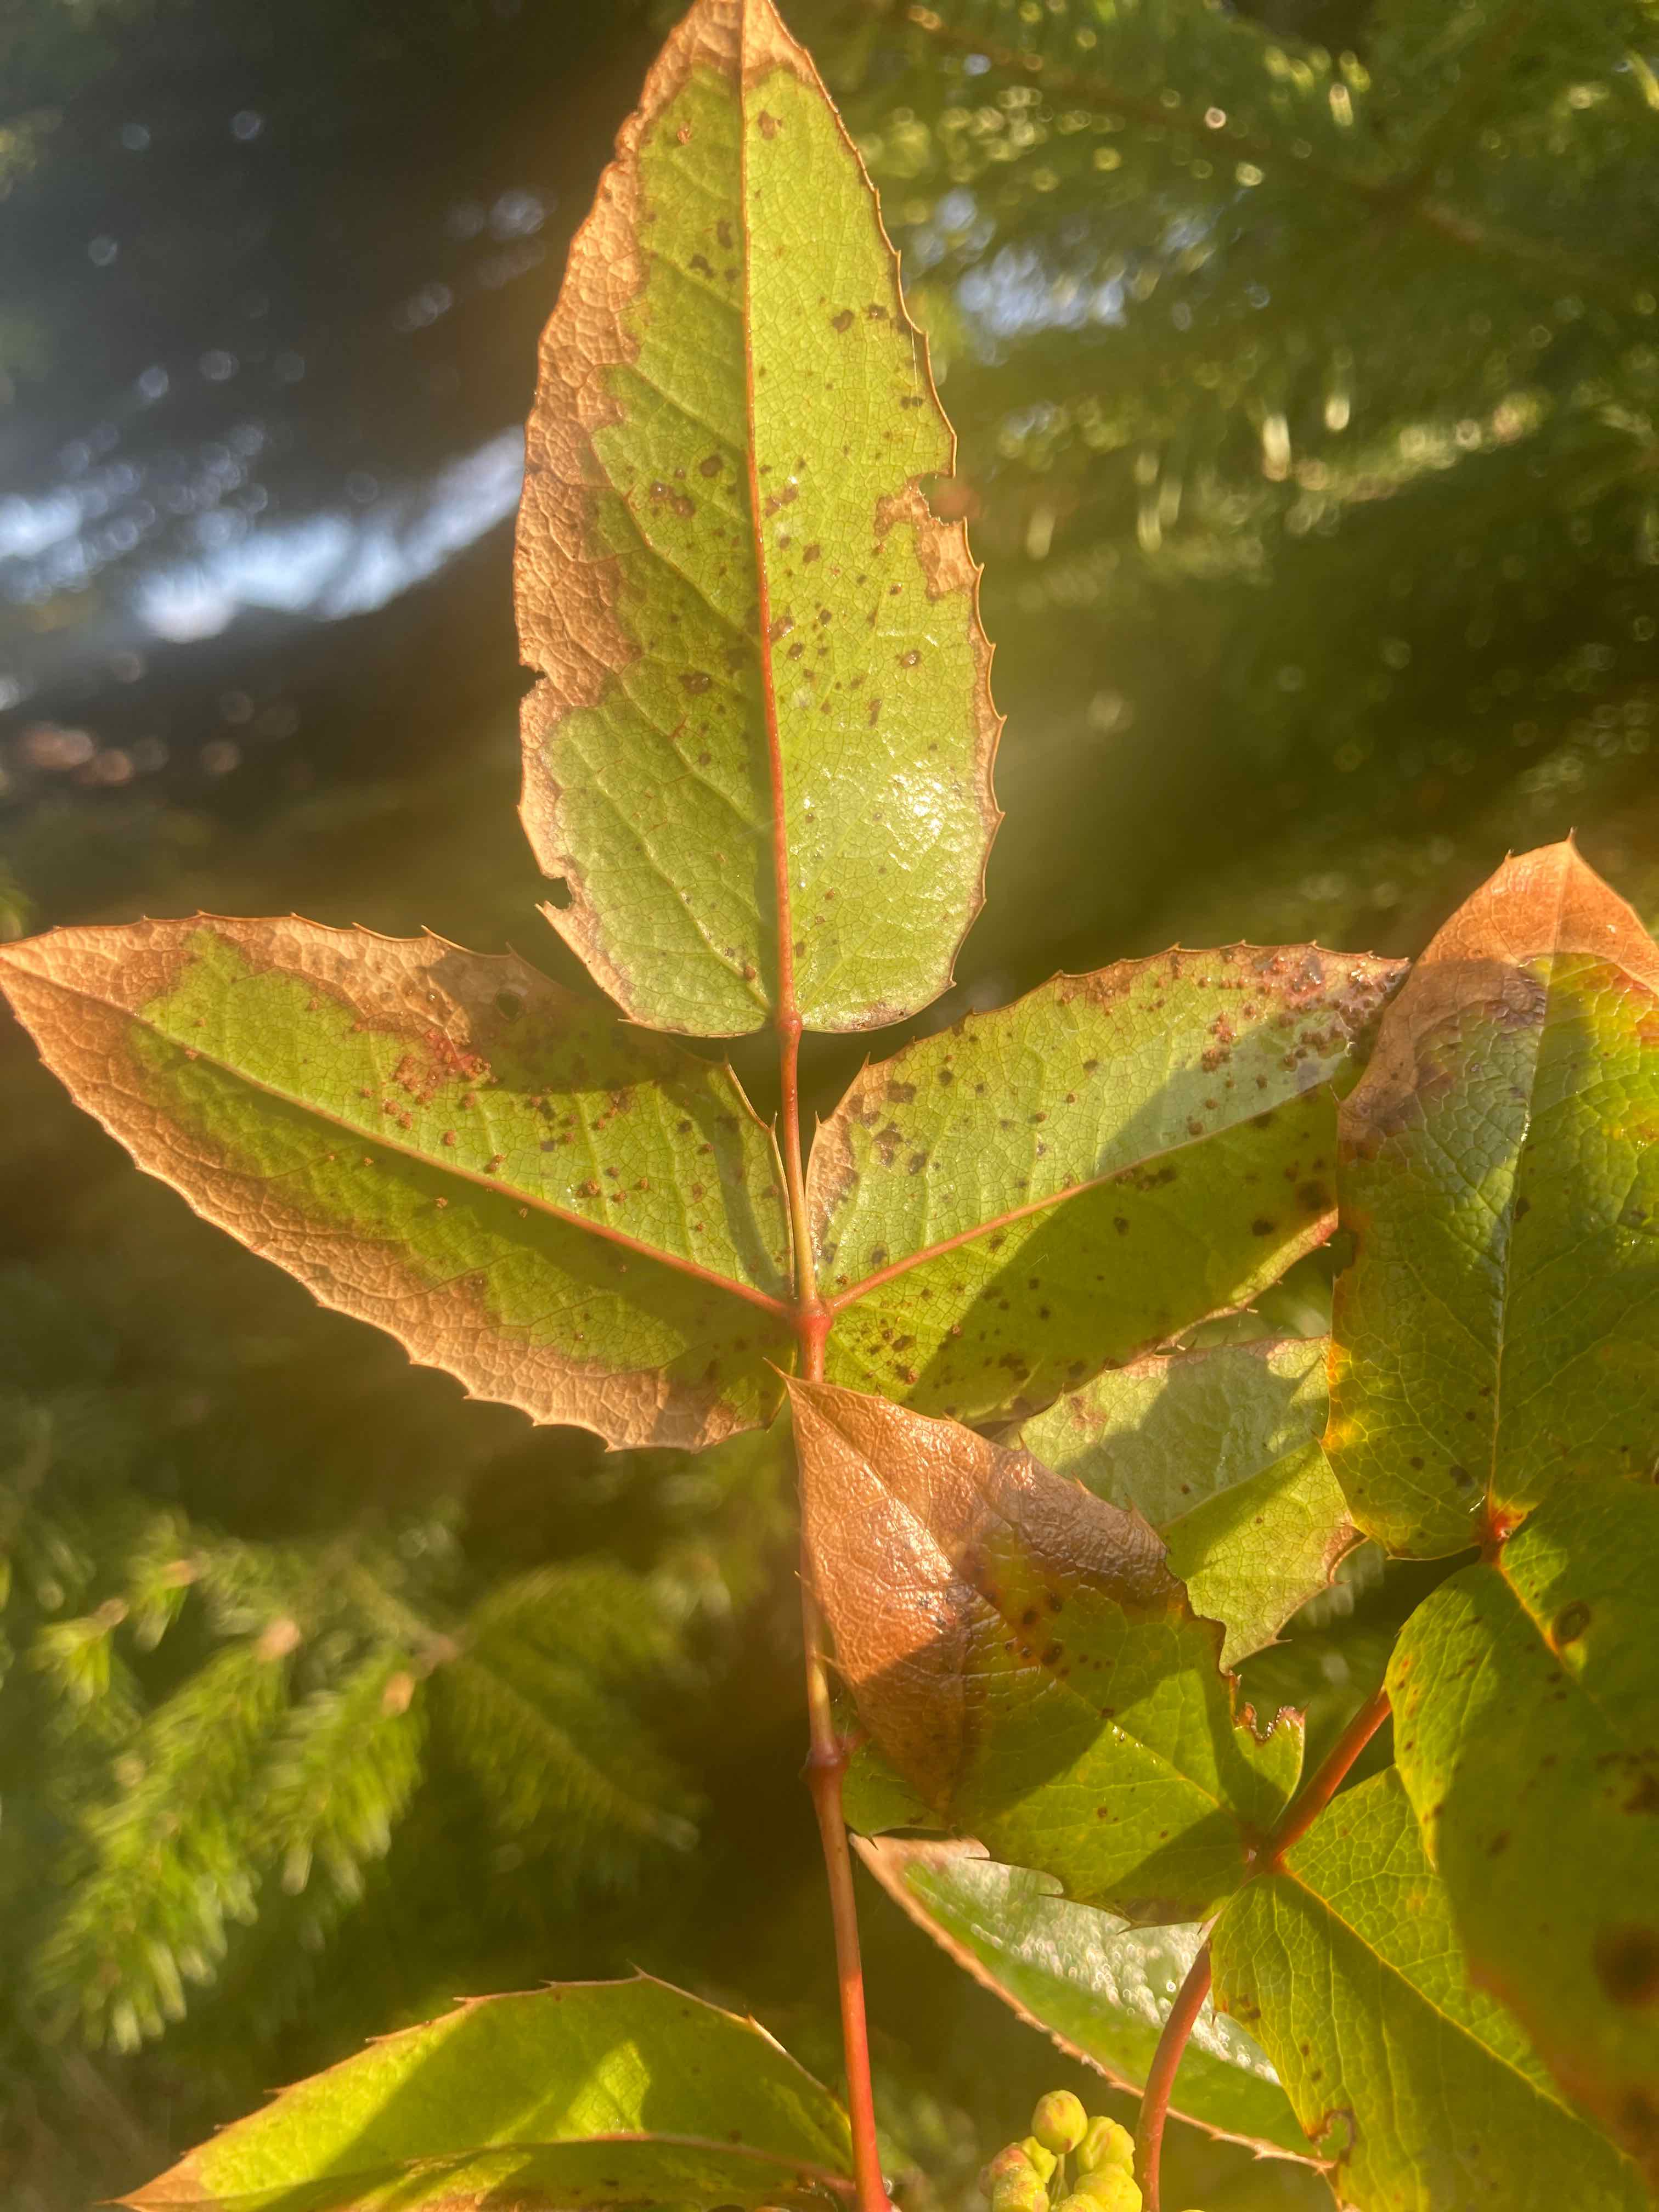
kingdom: Fungi
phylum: Basidiomycota
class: Pucciniomycetes
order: Pucciniales
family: Pucciniaceae
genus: Cumminsiella
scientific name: Cumminsiella mirabilissima
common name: mahonierust
